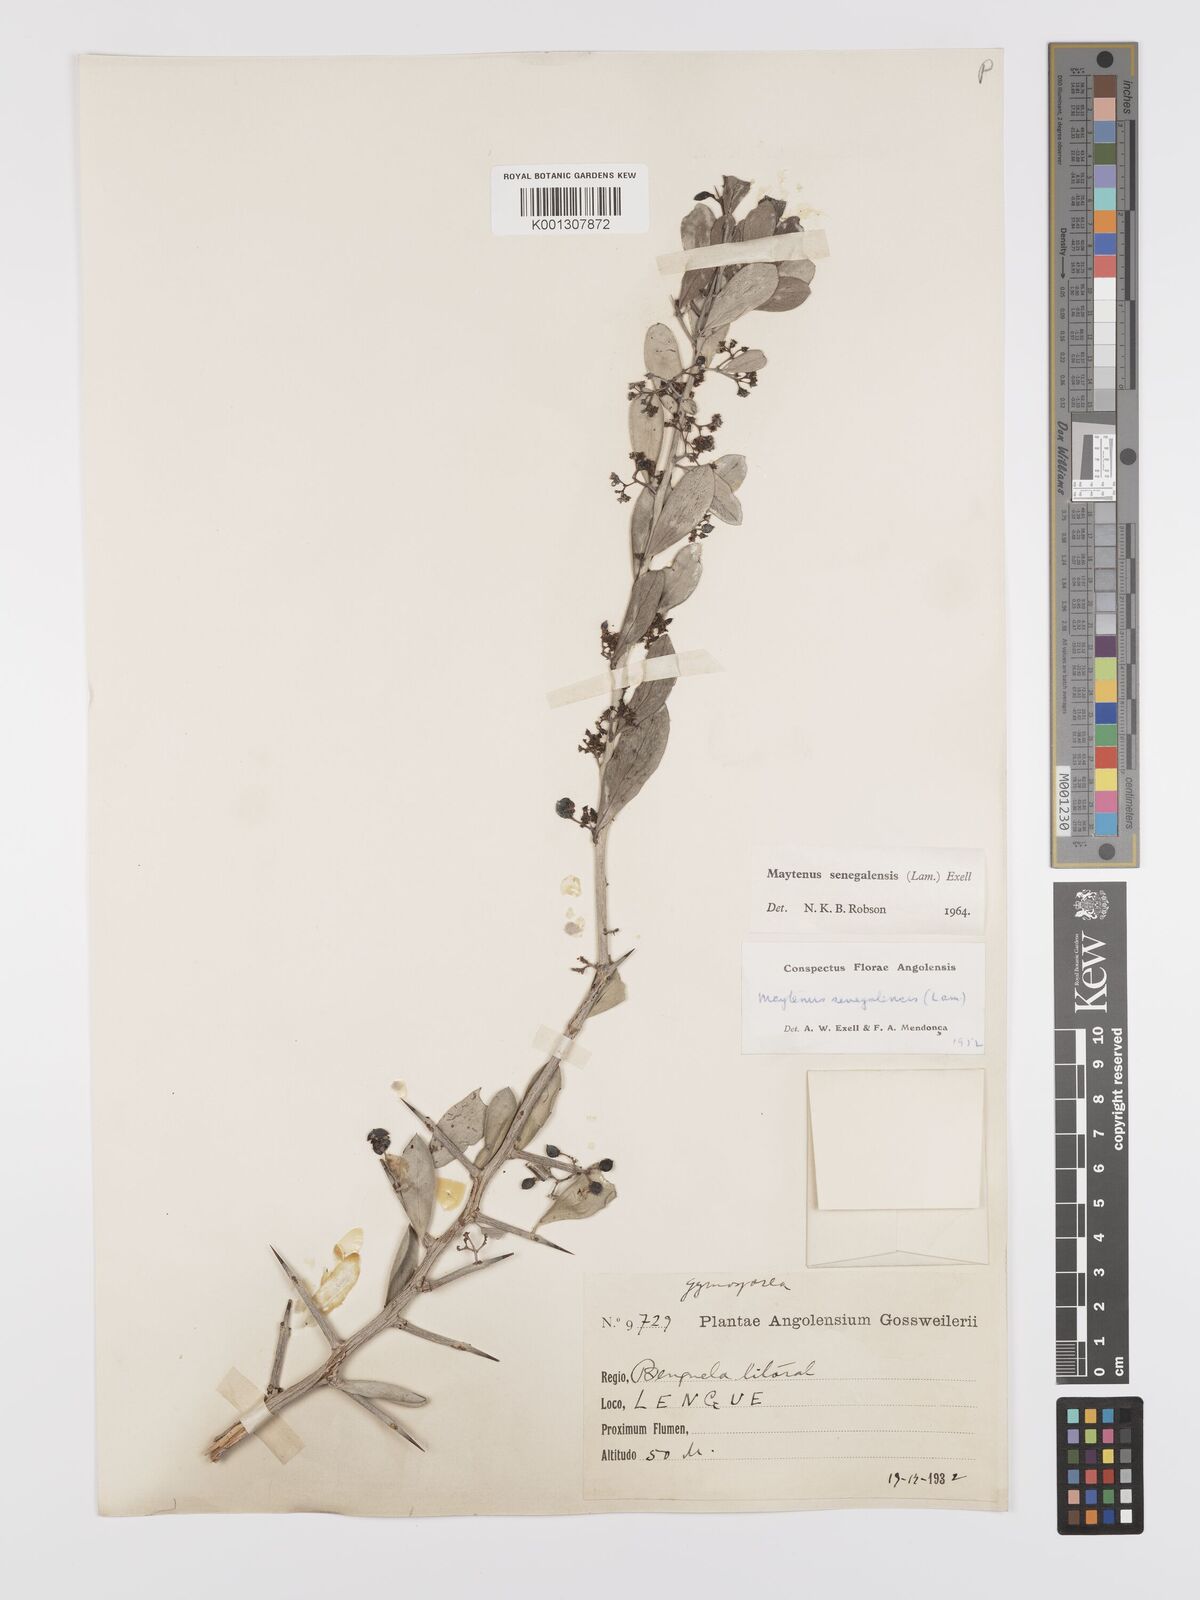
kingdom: Plantae
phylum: Tracheophyta
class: Magnoliopsida
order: Celastrales
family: Celastraceae
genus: Gymnosporia
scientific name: Gymnosporia senegalensis
